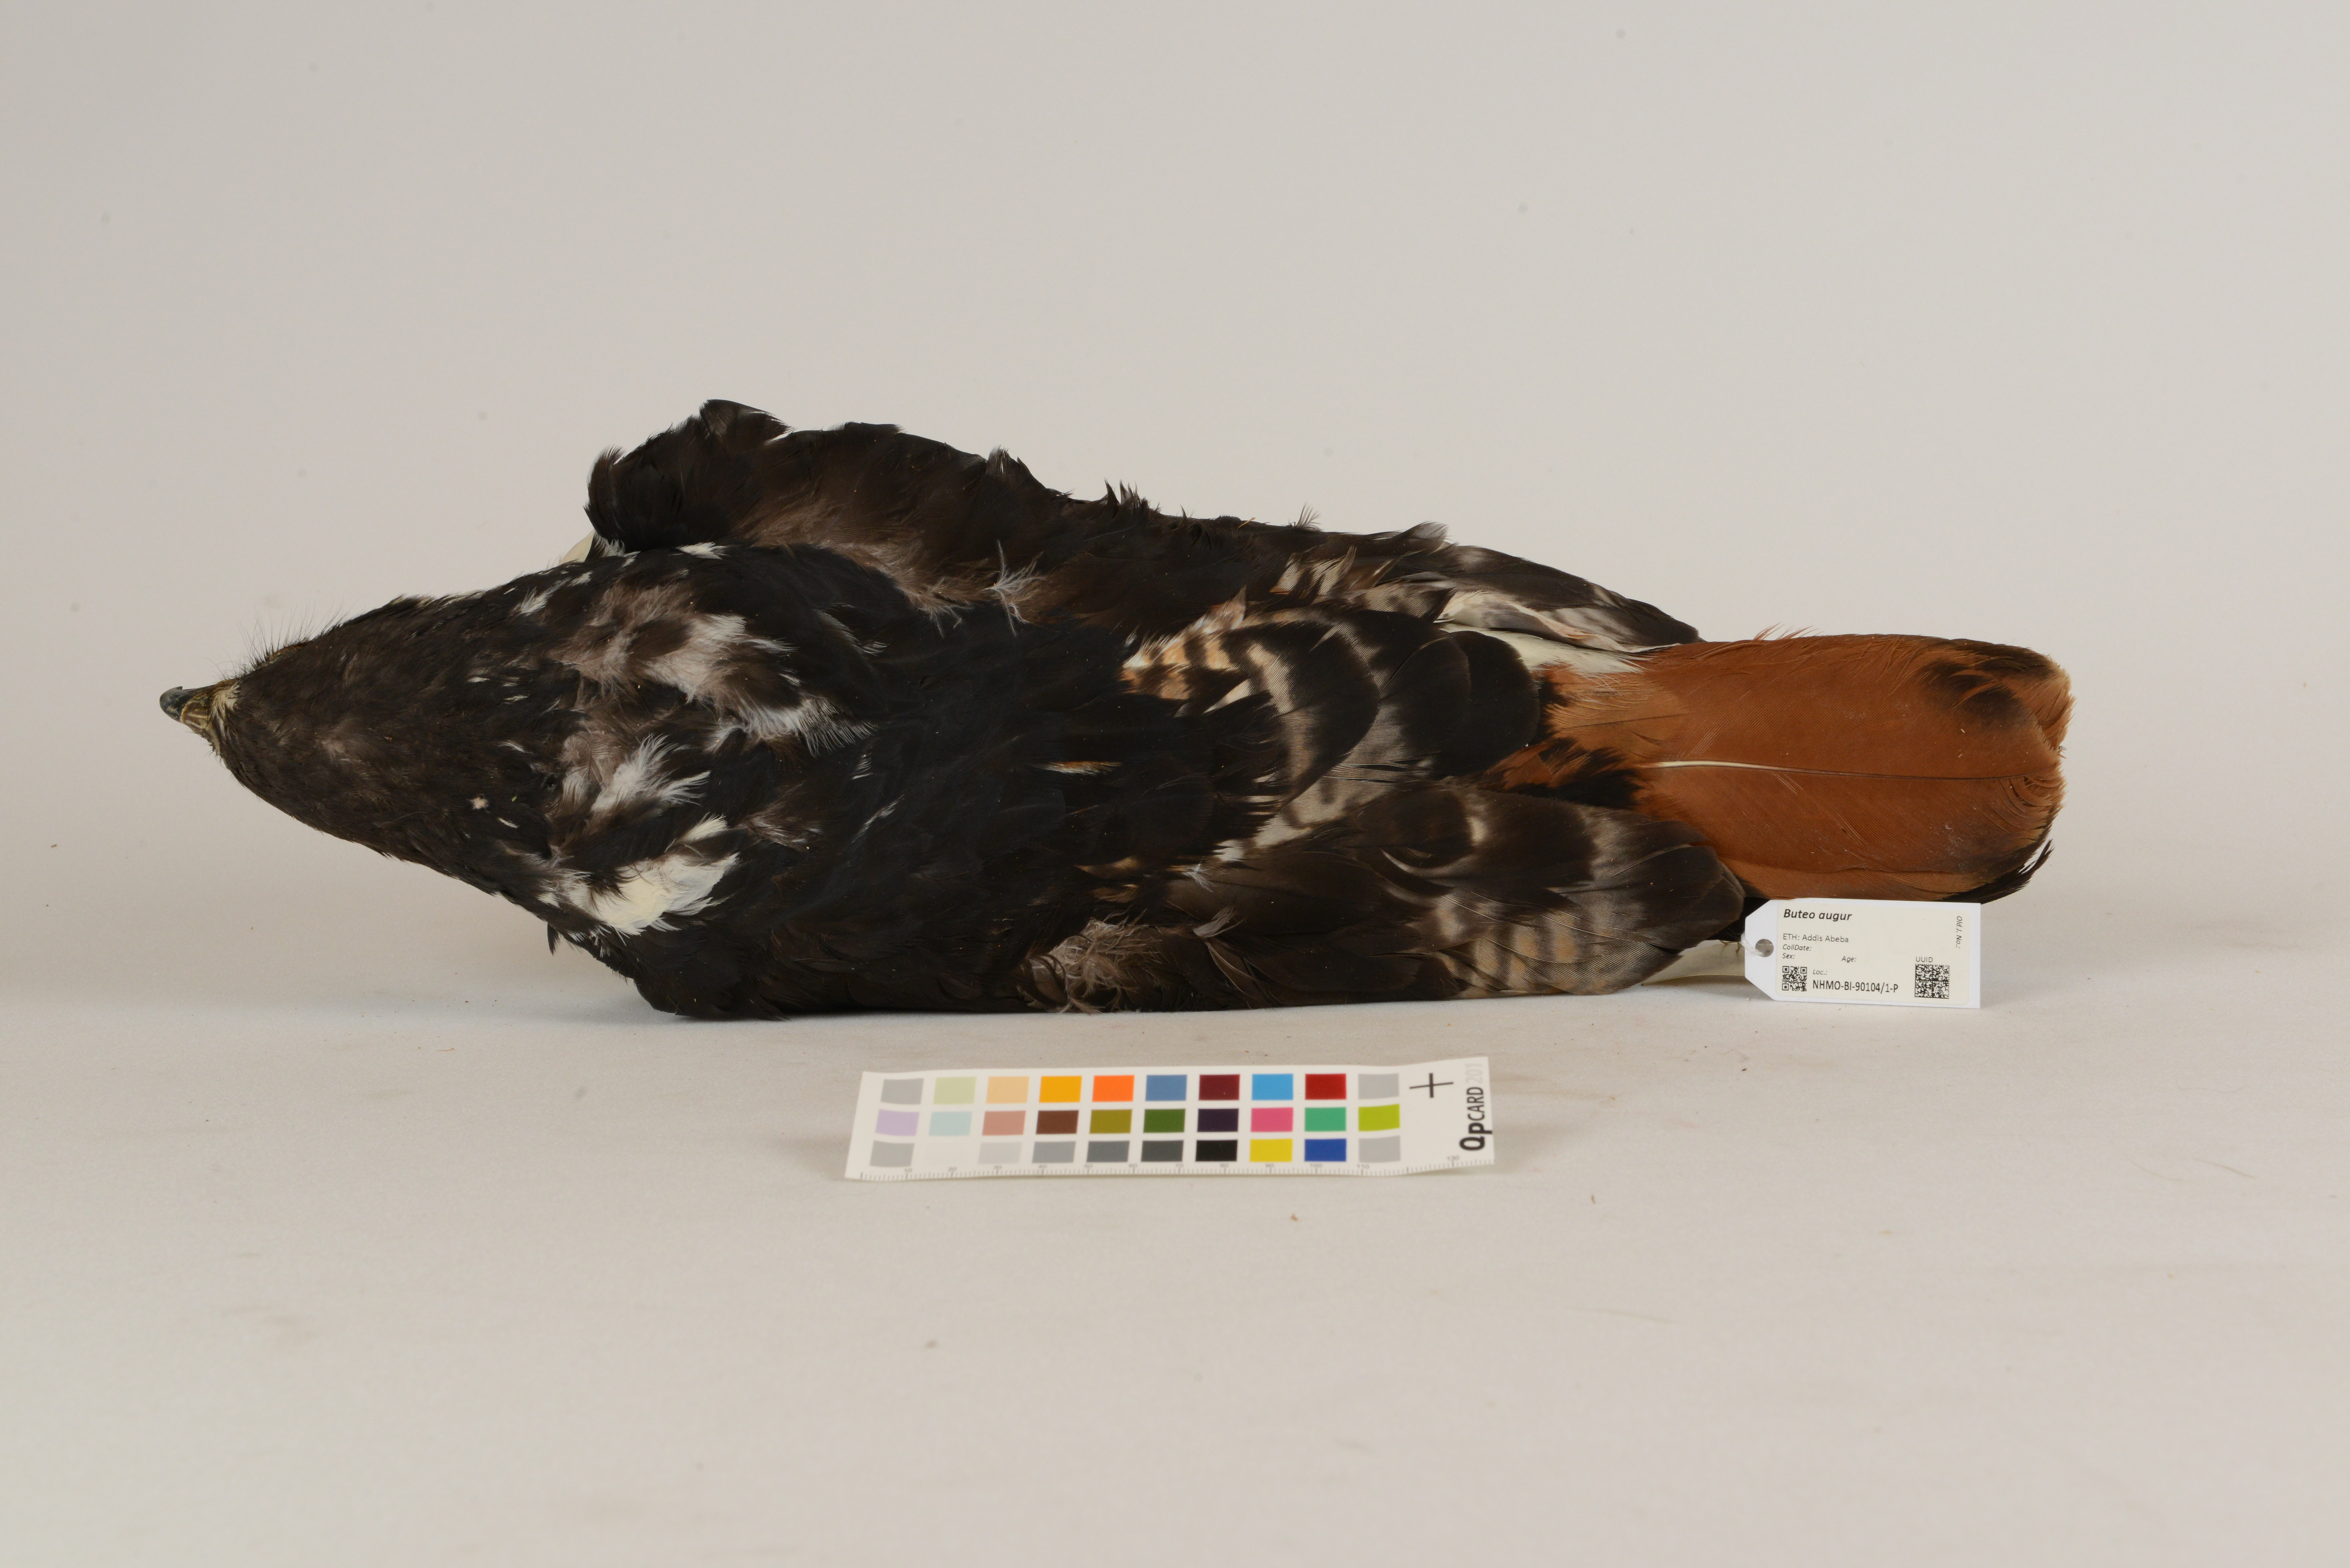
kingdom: Animalia
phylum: Chordata
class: Aves
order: Accipitriformes
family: Accipitridae
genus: Buteo
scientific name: Buteo augur
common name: Augur buzzard
